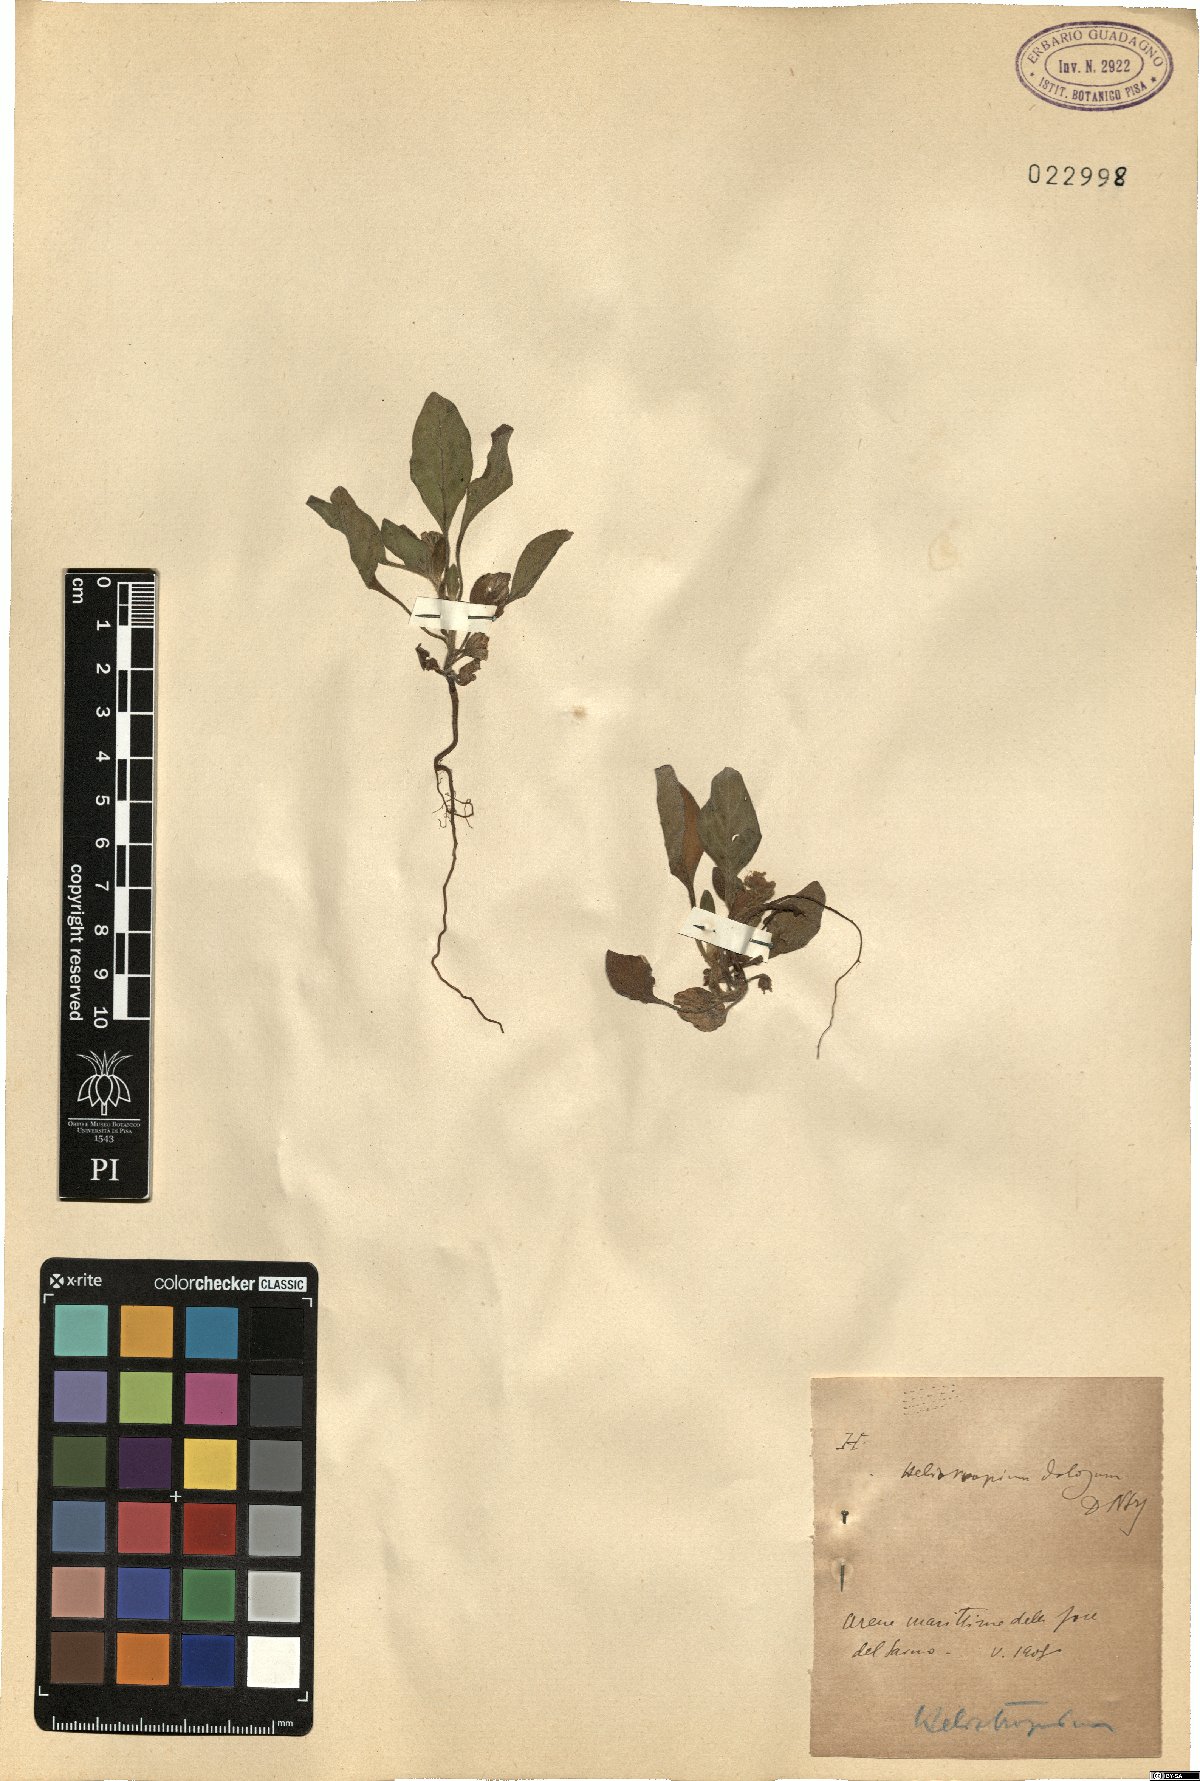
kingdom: Plantae
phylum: Tracheophyta
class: Magnoliopsida
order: Boraginales
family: Heliotropiaceae
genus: Heliotropium
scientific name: Heliotropium dolosum
